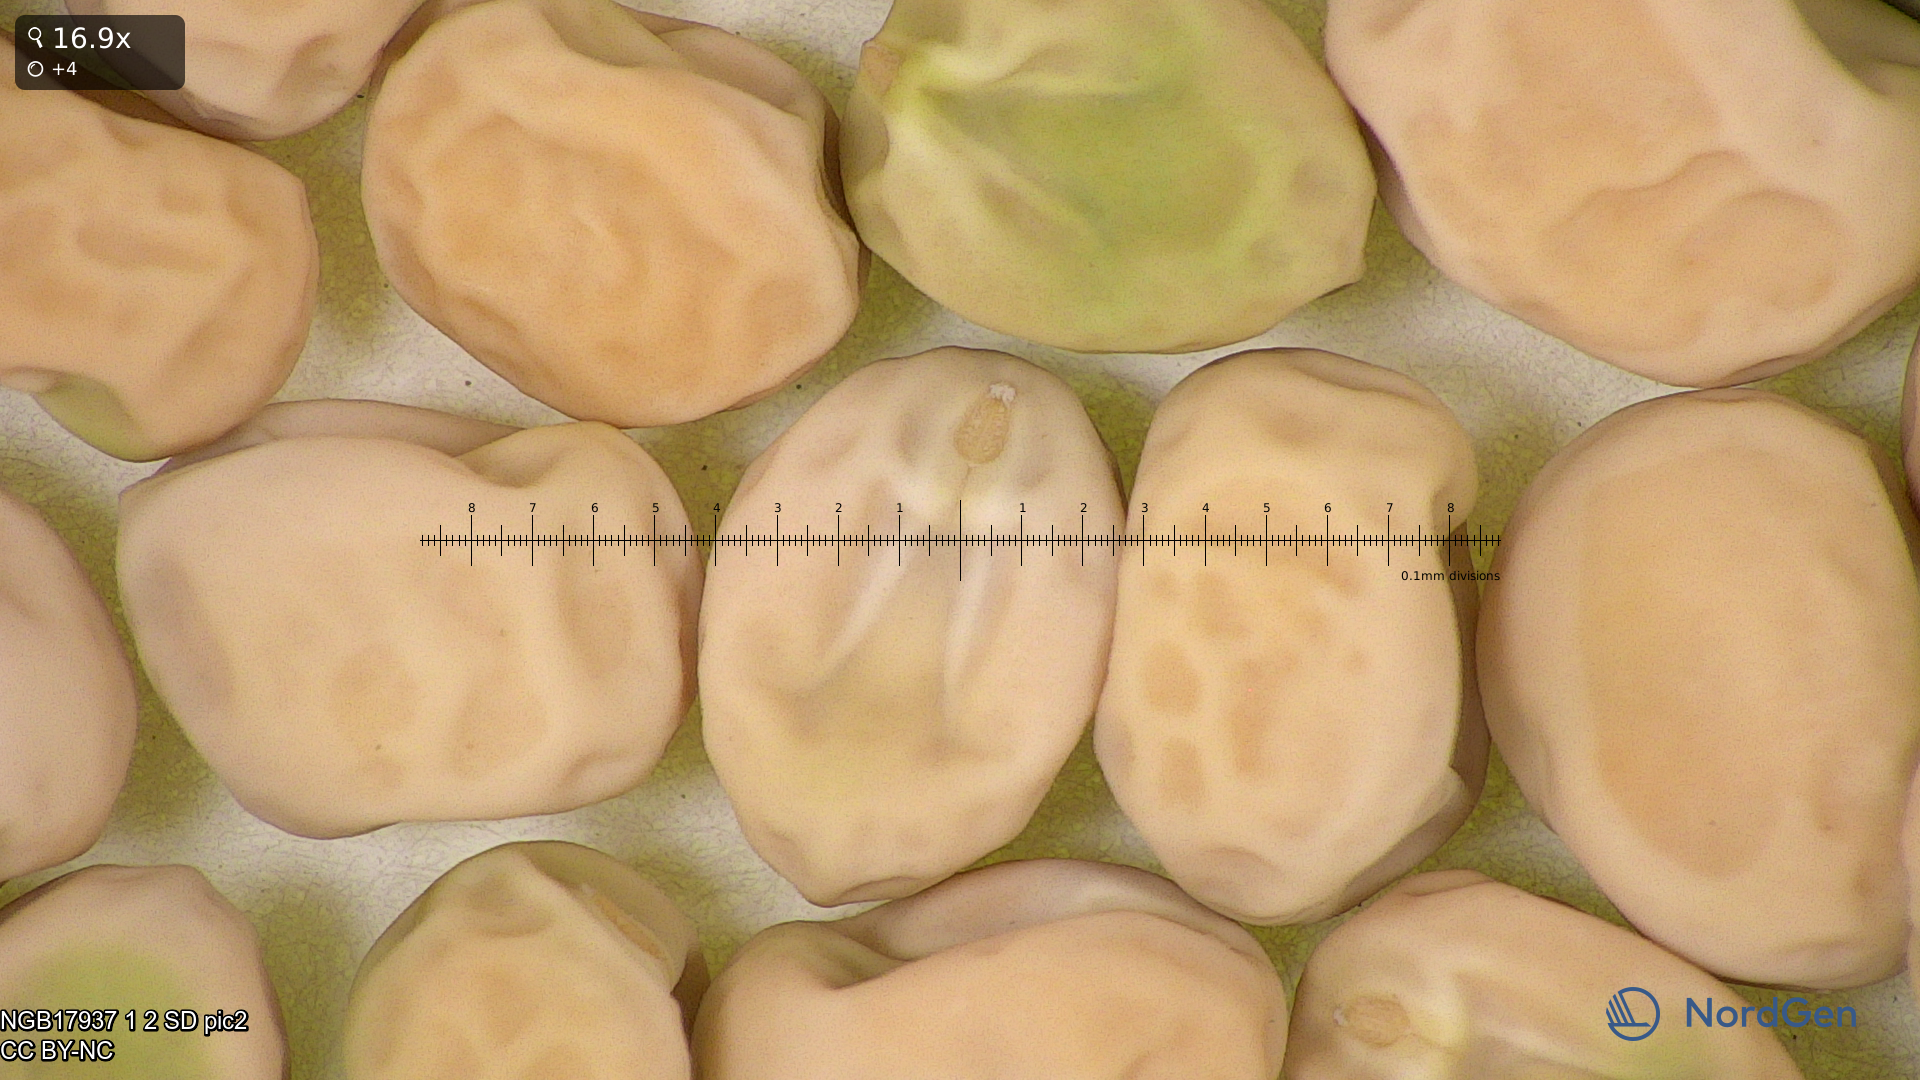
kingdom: Plantae
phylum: Tracheophyta
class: Magnoliopsida
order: Fabales
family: Fabaceae
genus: Lathyrus
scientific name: Lathyrus oleraceus
